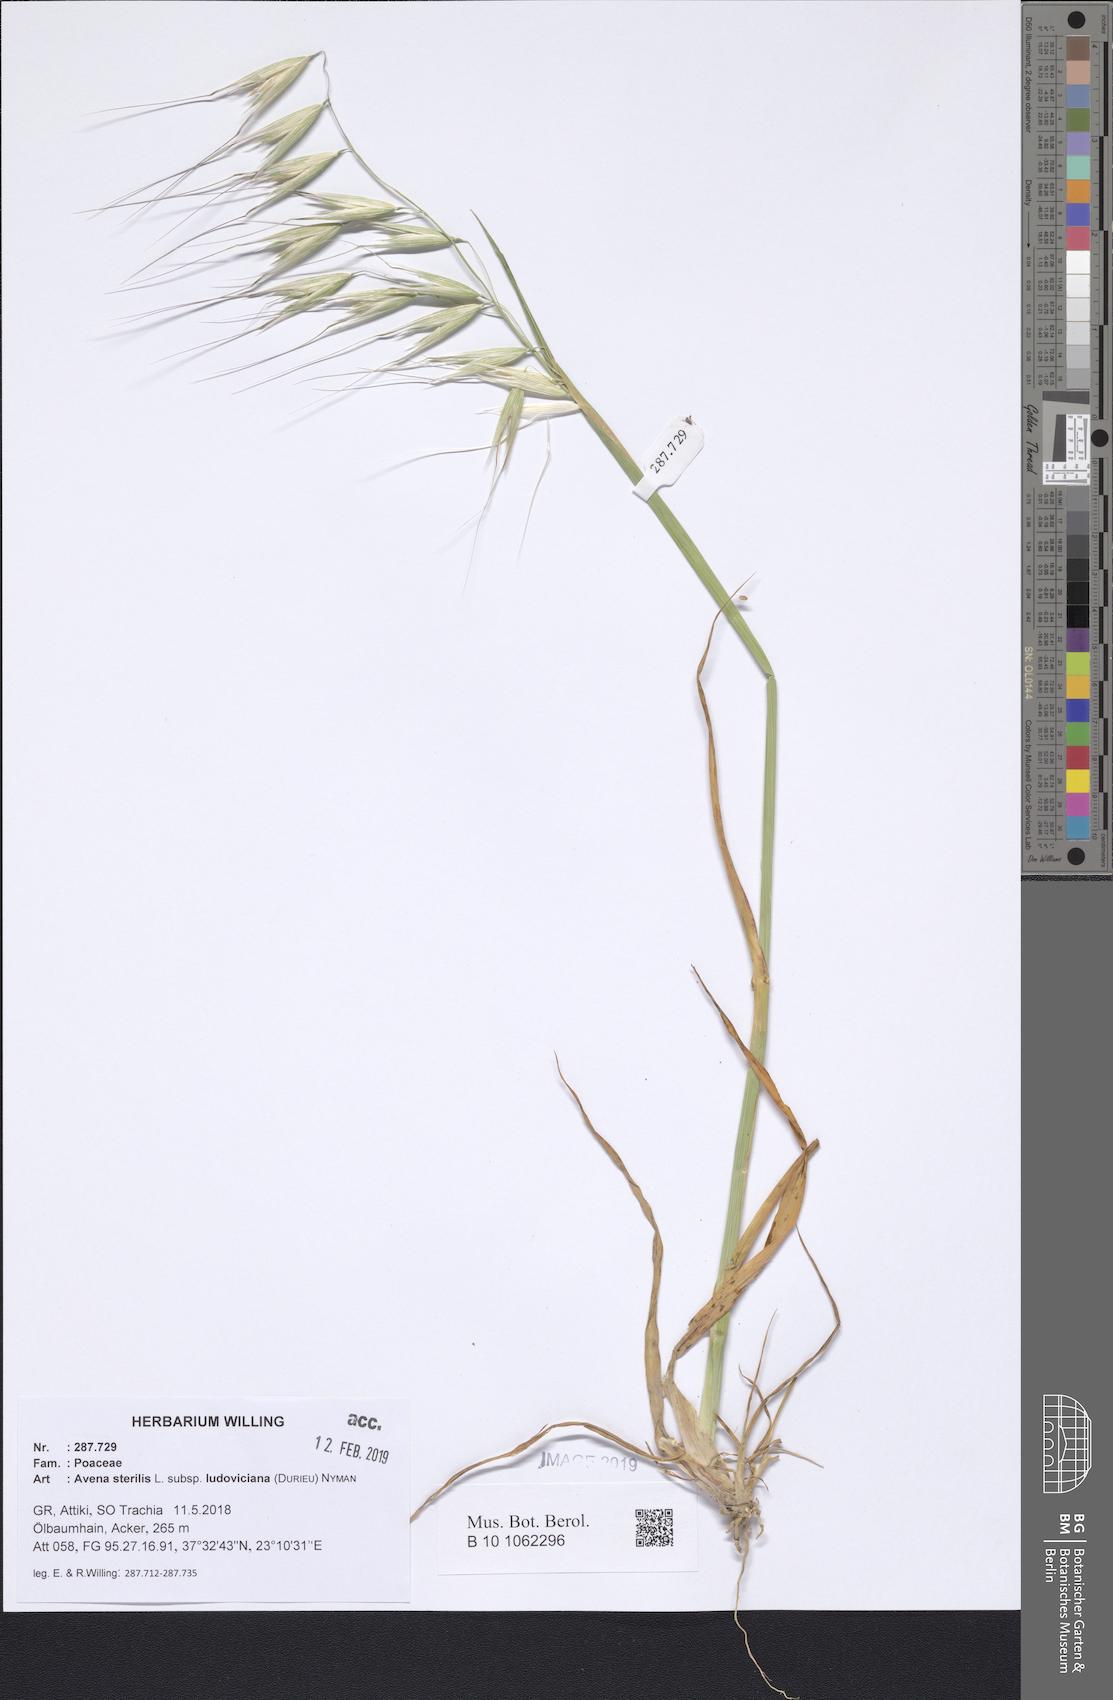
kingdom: Plantae
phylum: Tracheophyta
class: Liliopsida
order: Poales
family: Poaceae
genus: Avena
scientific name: Avena sterilis
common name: Animated oat
